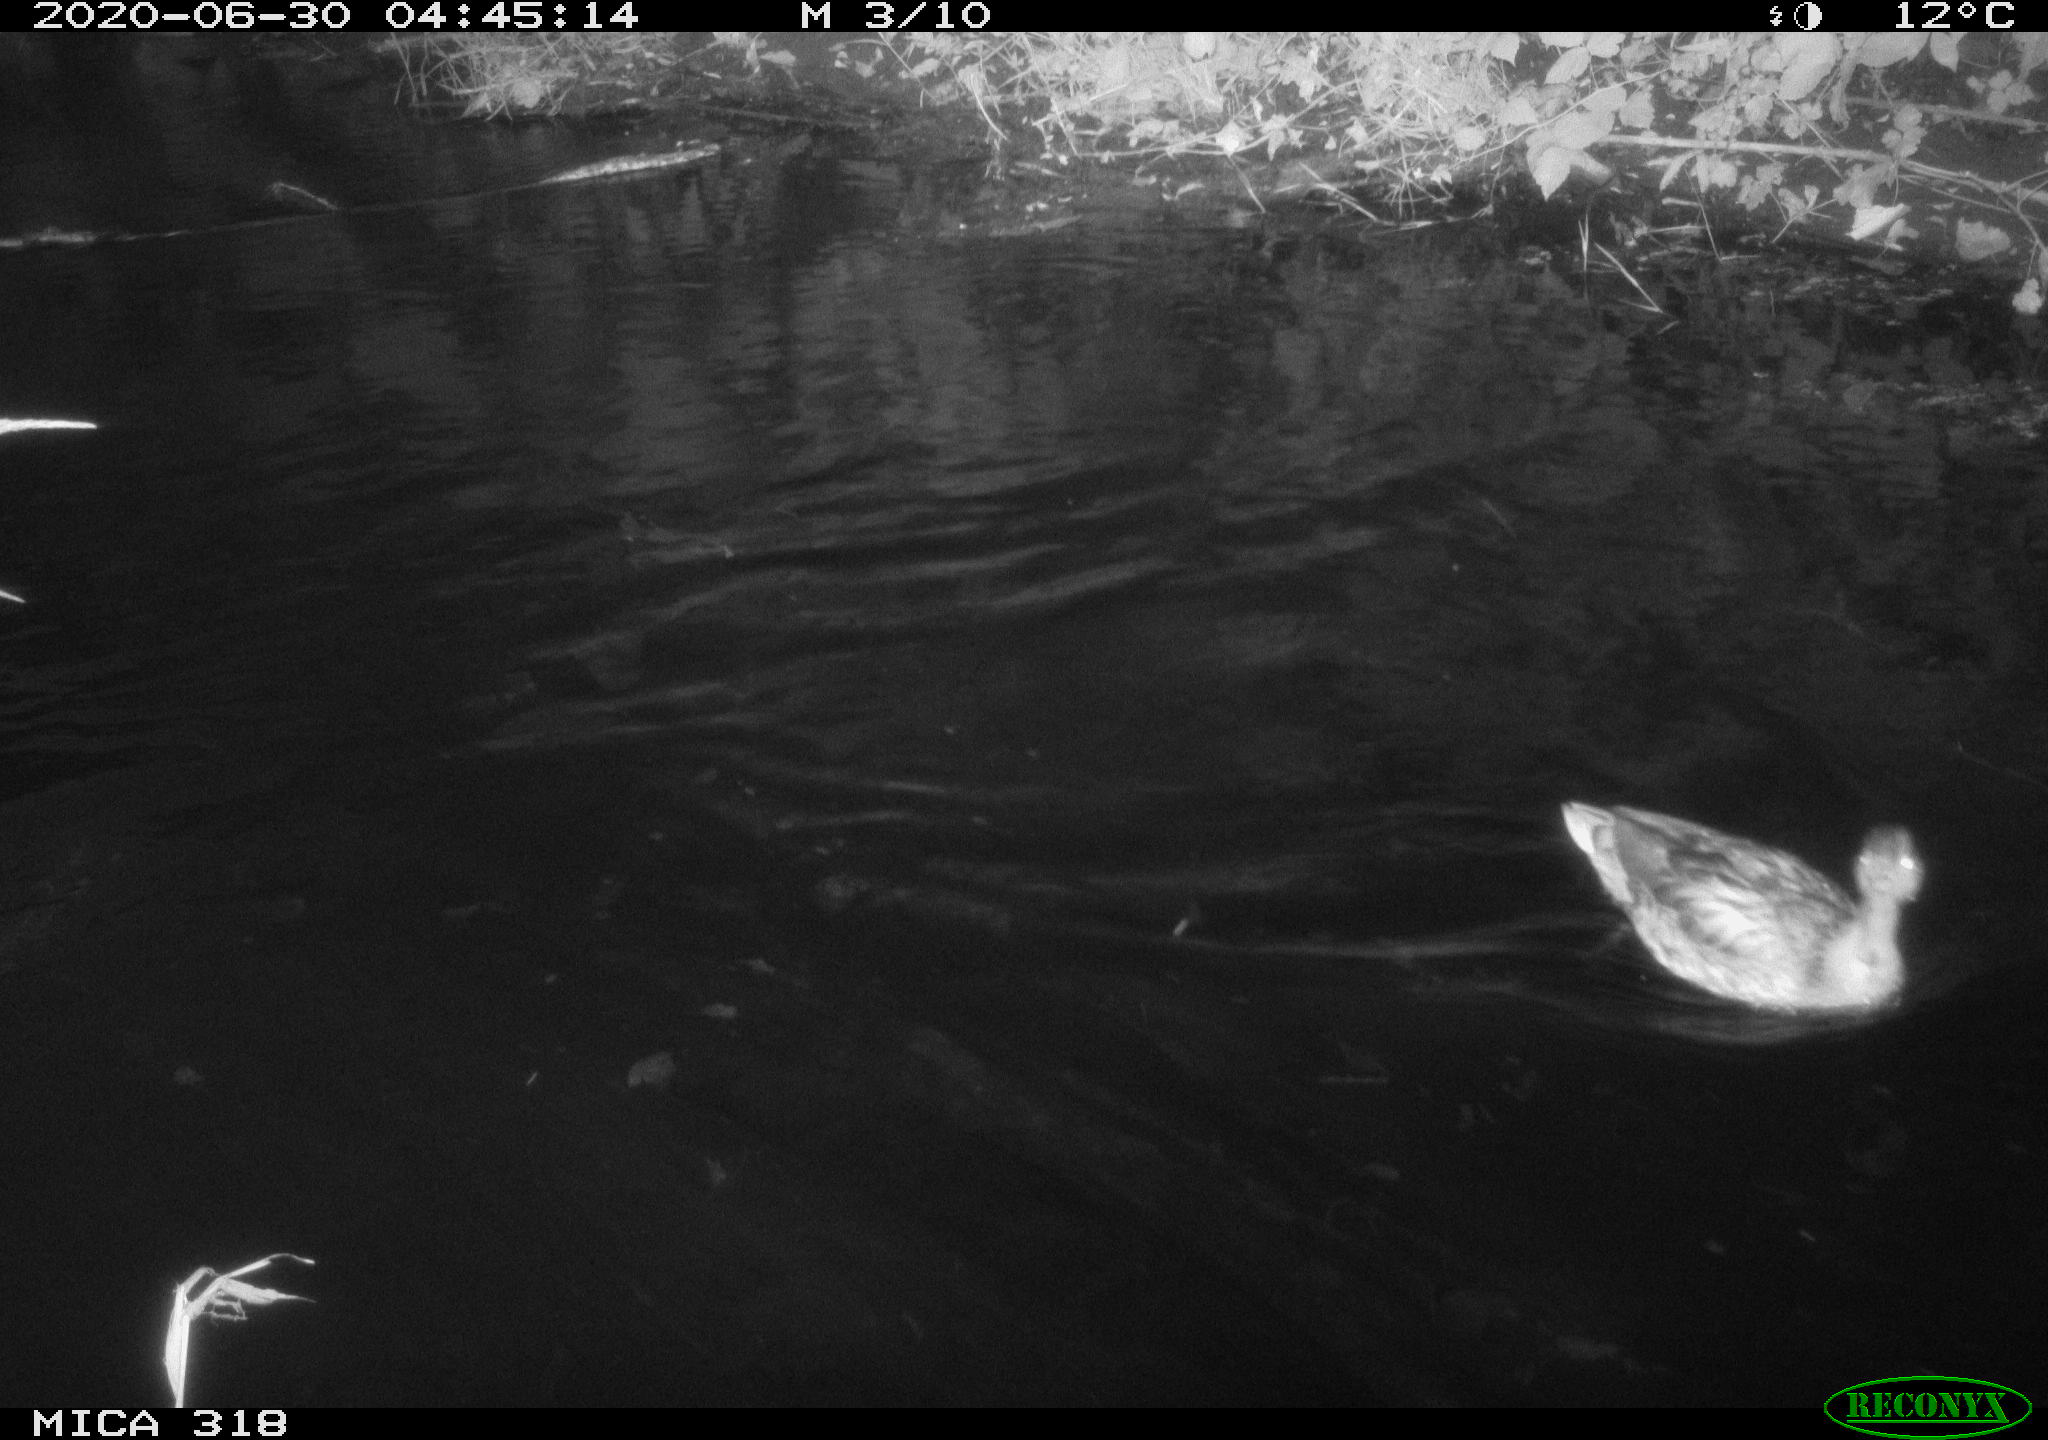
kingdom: Animalia
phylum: Chordata
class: Aves
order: Anseriformes
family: Anatidae
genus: Anas
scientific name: Anas platyrhynchos
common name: Mallard
